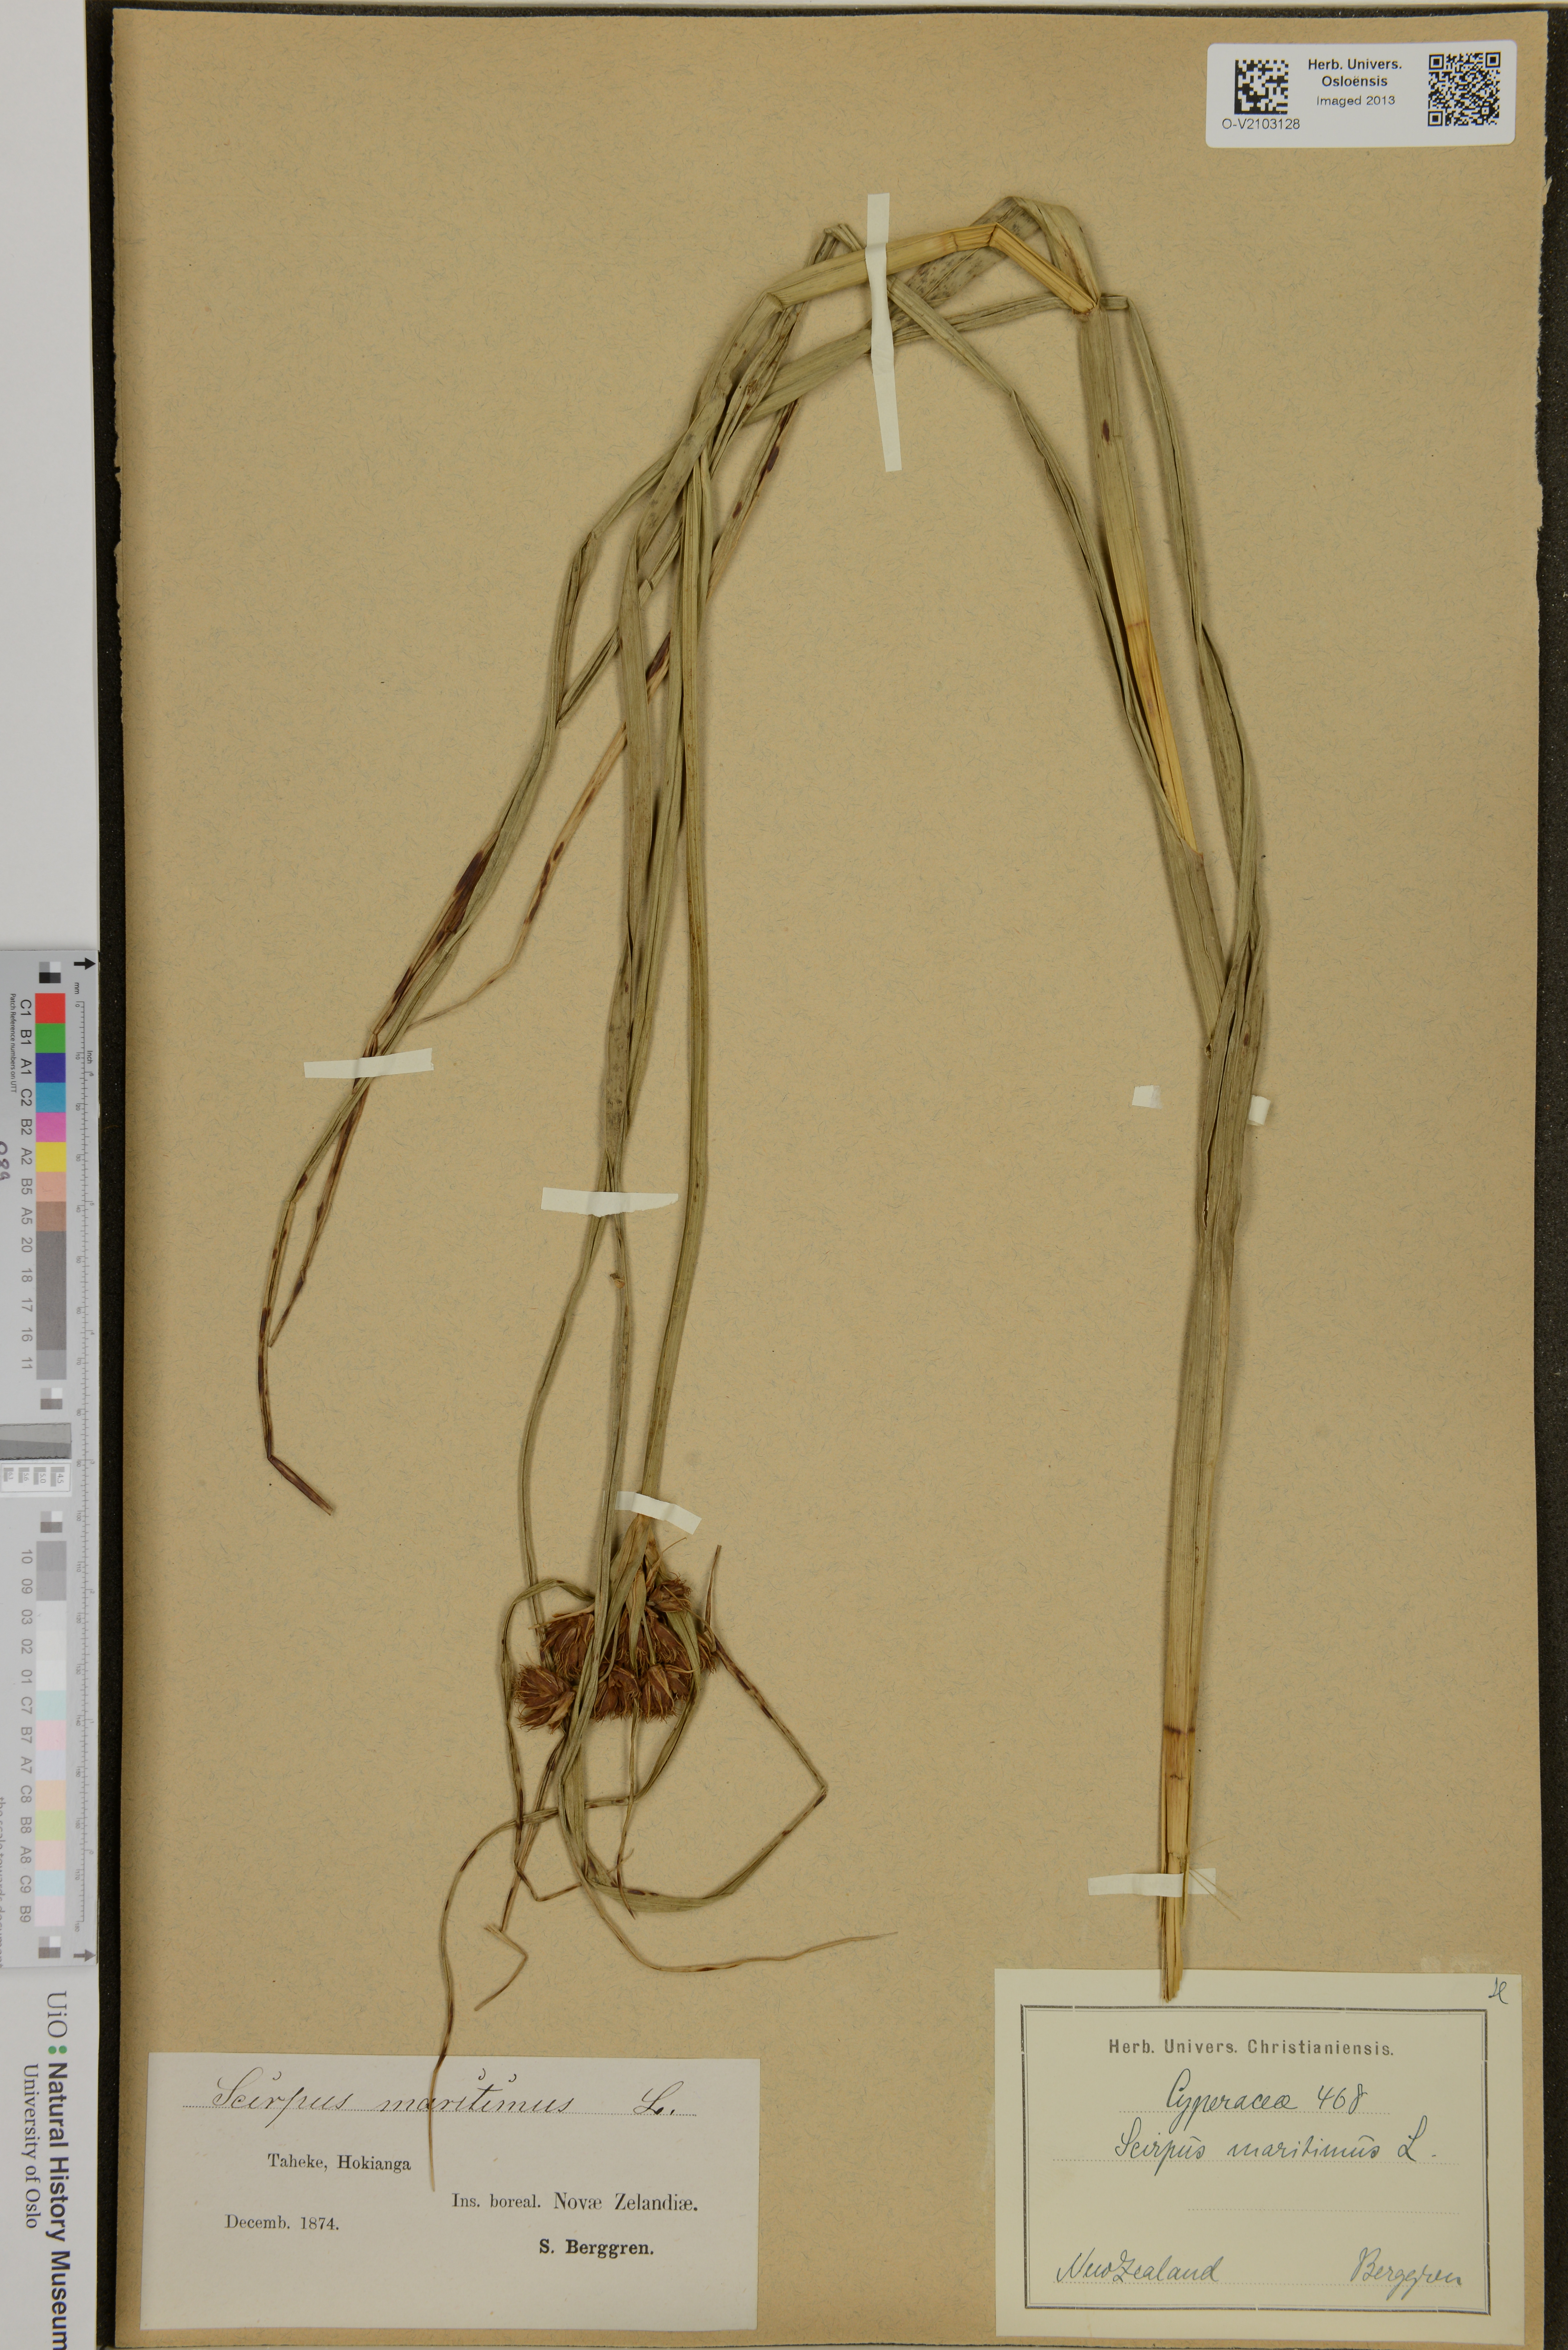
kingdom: Plantae
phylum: Tracheophyta
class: Liliopsida
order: Poales
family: Cyperaceae
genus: Bolboschoenus
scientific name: Bolboschoenus maritimus
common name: Sea club-rush
